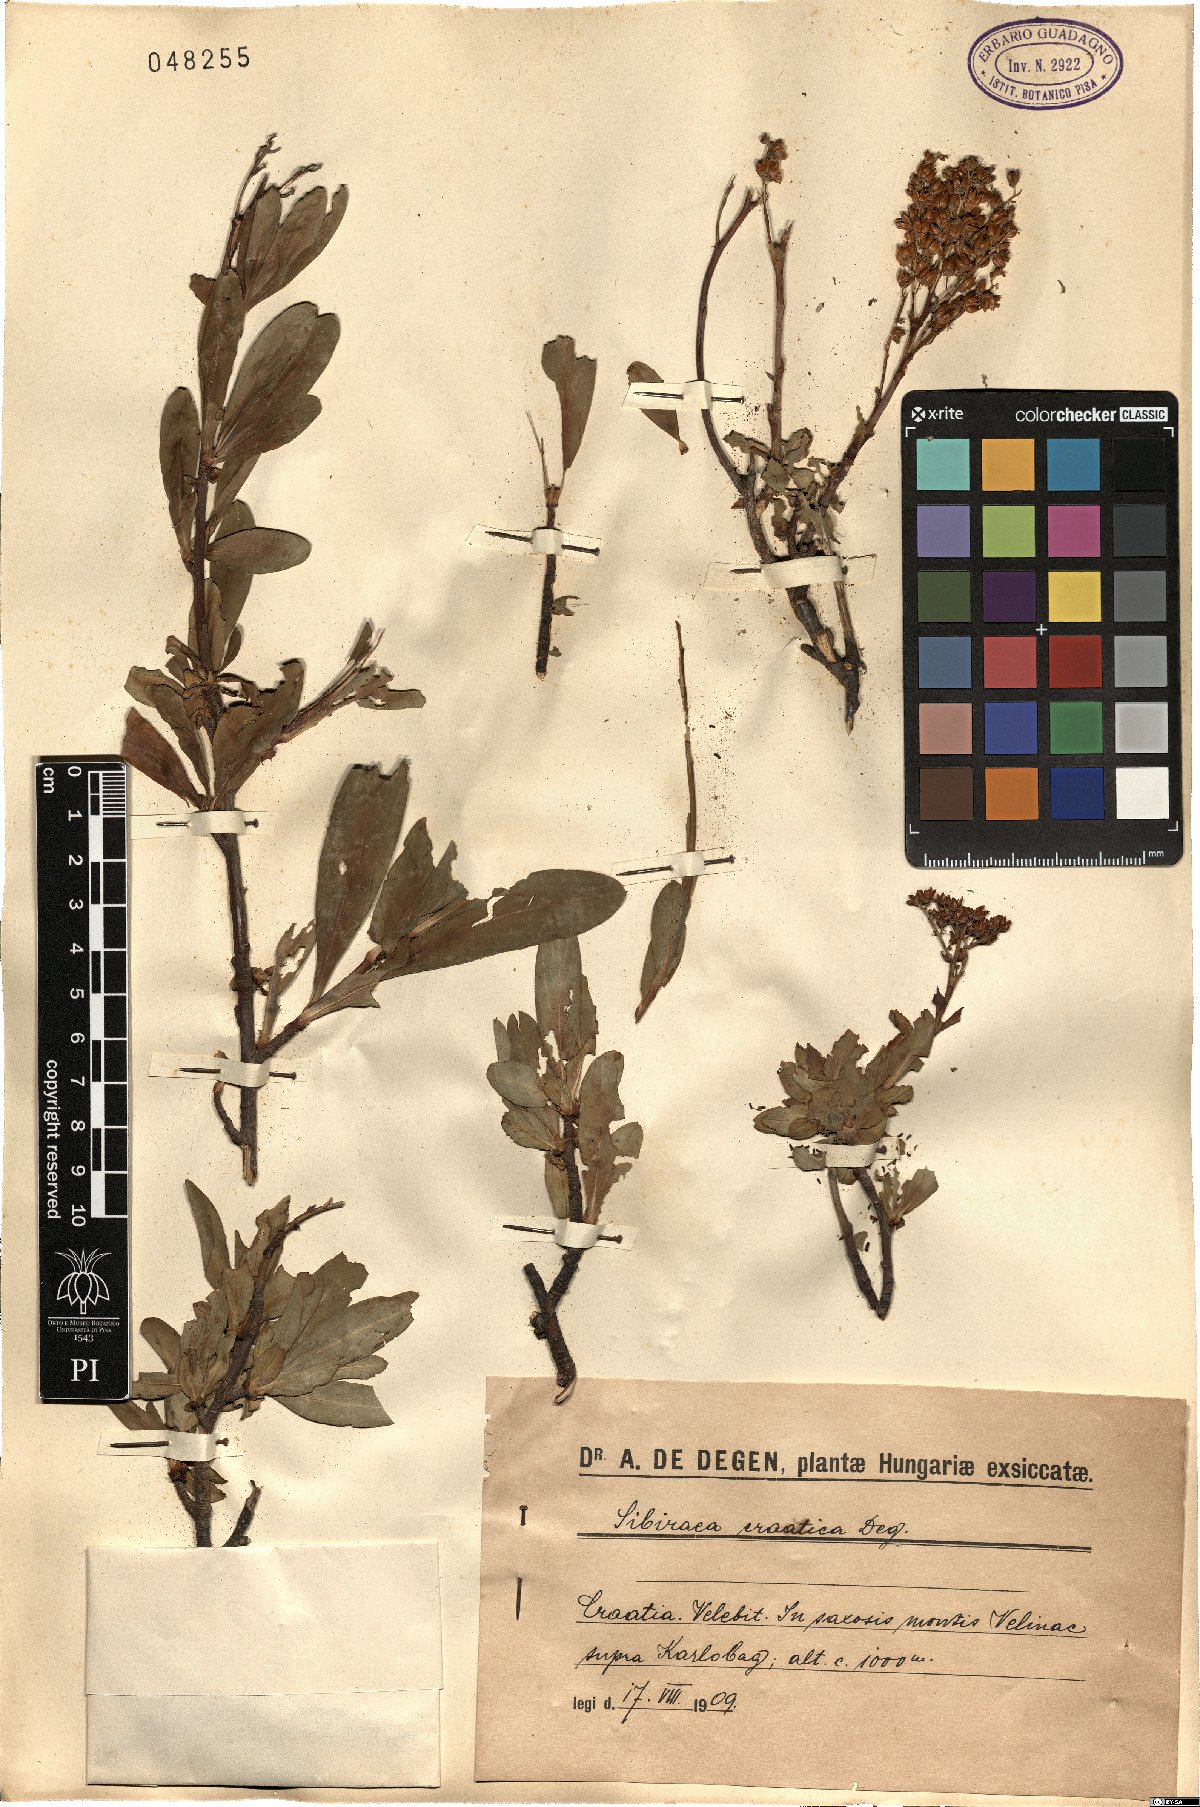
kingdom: Plantae
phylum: Tracheophyta
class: Magnoliopsida
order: Rosales
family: Rosaceae
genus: Sibiraea
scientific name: Sibiraea laevigata
